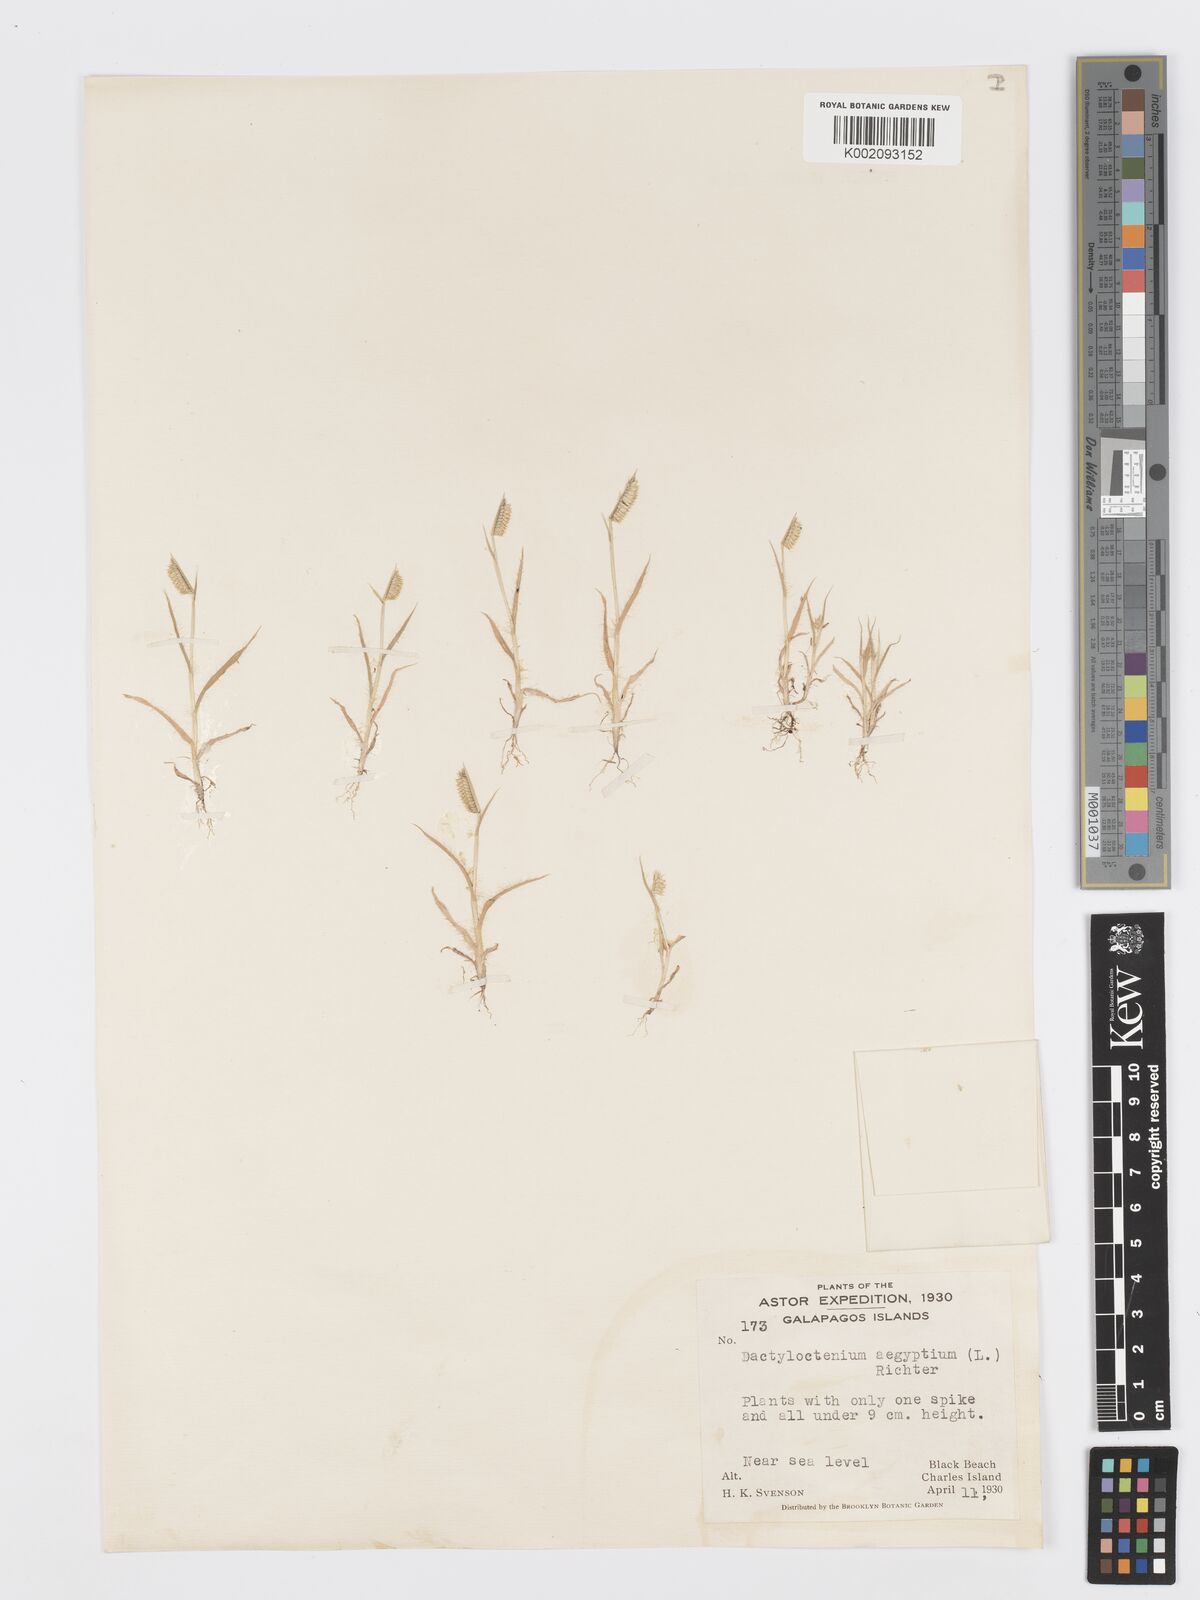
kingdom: Plantae
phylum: Tracheophyta
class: Liliopsida
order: Poales
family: Poaceae
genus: Dactyloctenium
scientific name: Dactyloctenium aegyptium
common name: Egyptian grass
